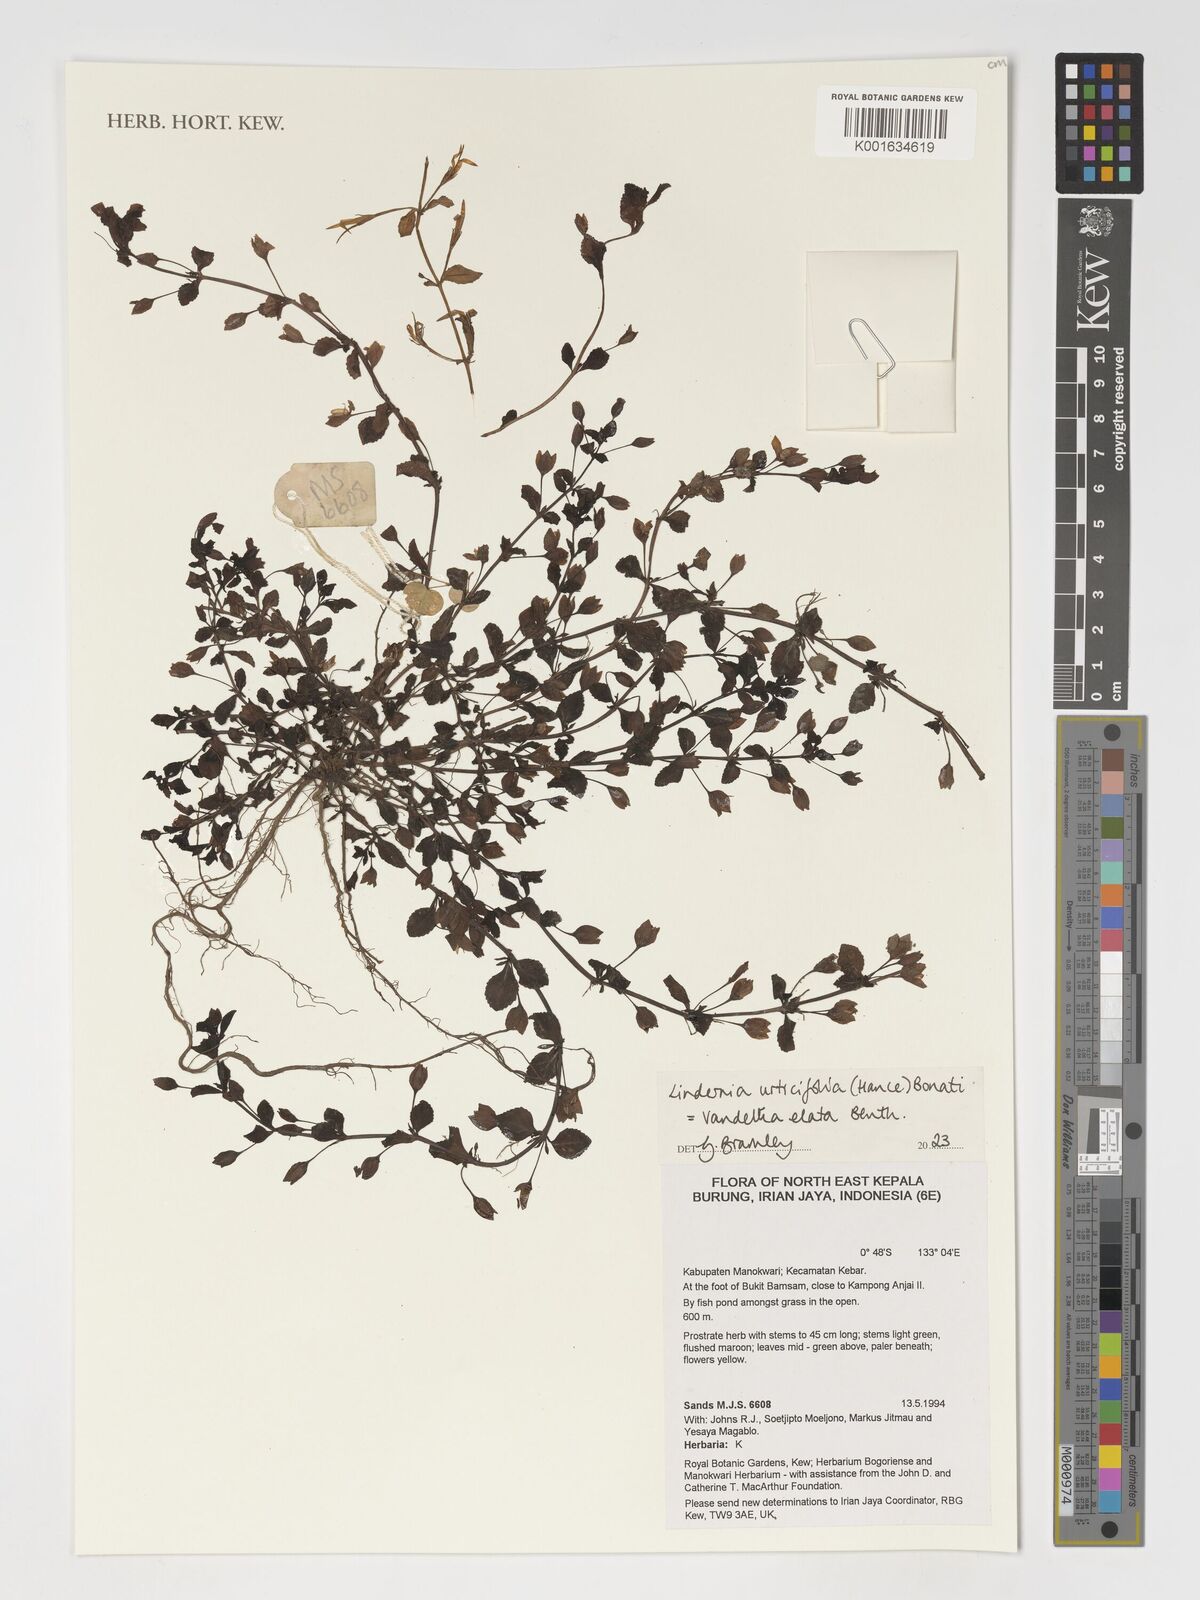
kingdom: Plantae
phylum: Tracheophyta
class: Magnoliopsida
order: Lamiales
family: Linderniaceae
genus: Vandellia
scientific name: Vandellia elata
